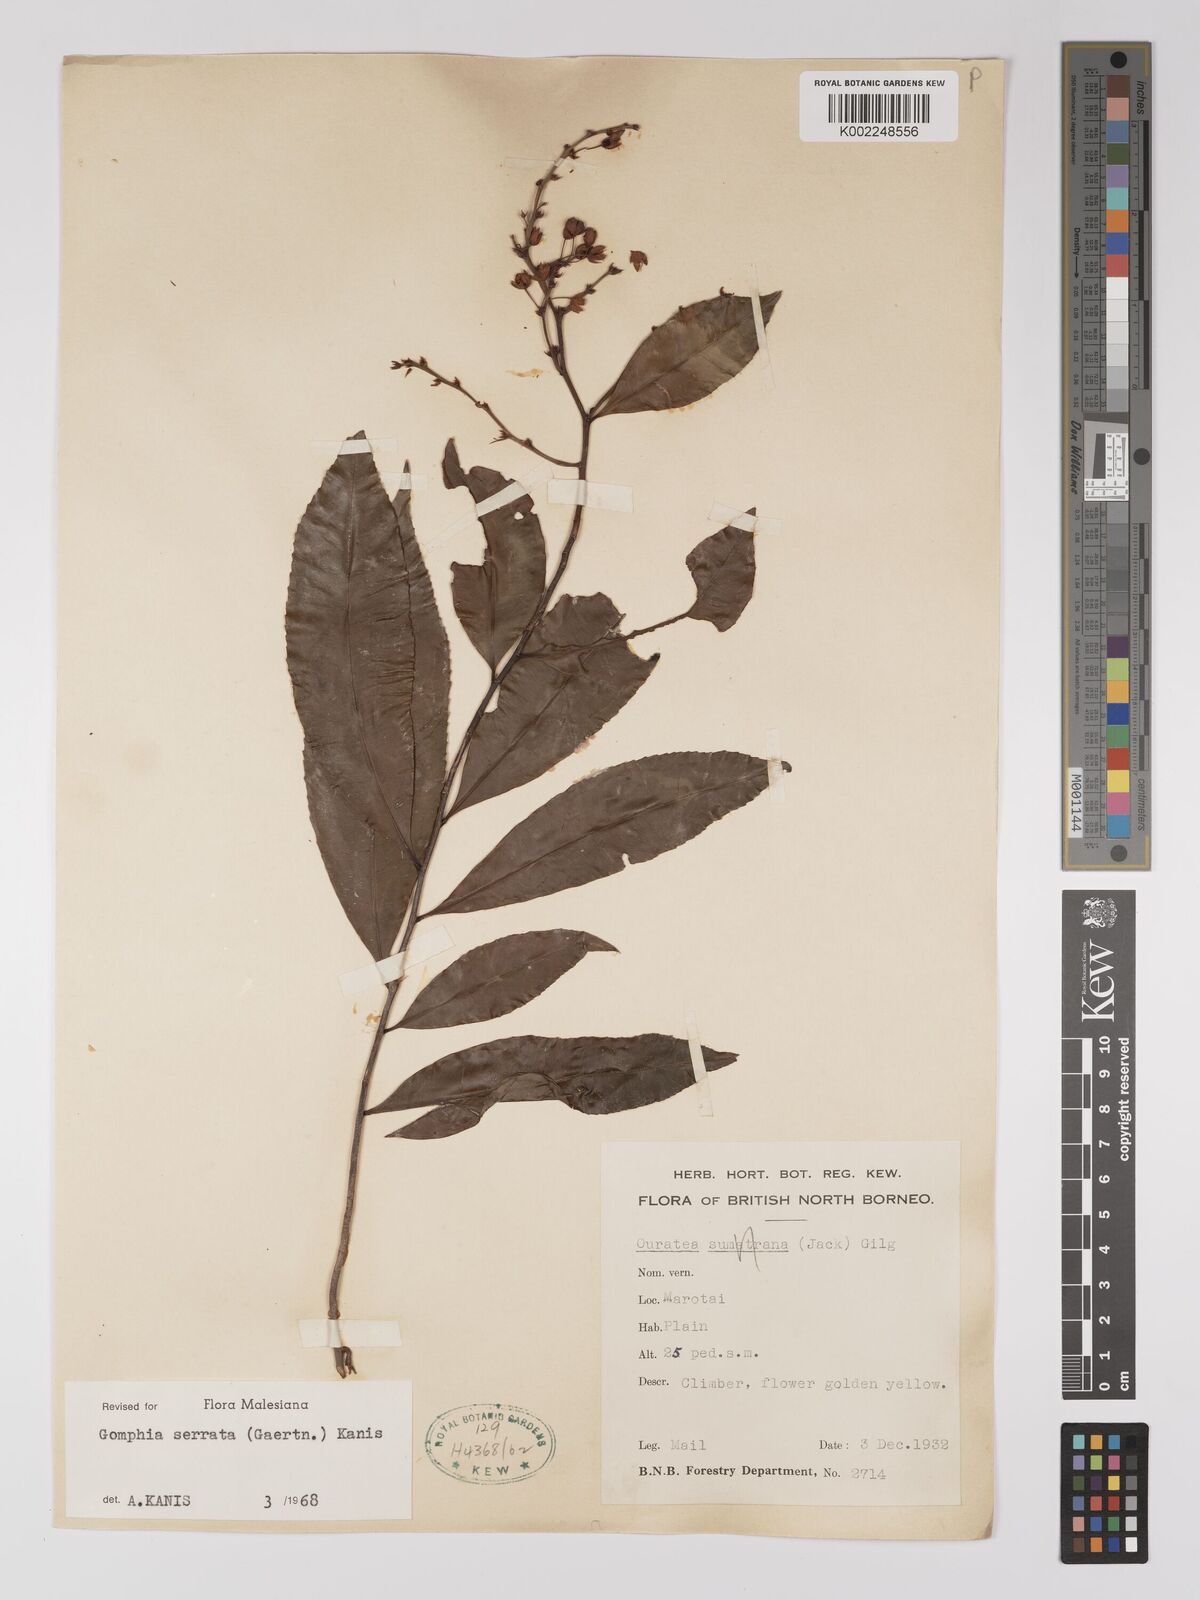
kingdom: Plantae
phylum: Tracheophyta
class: Magnoliopsida
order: Malpighiales
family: Ochnaceae
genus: Gomphia
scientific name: Gomphia serrata
